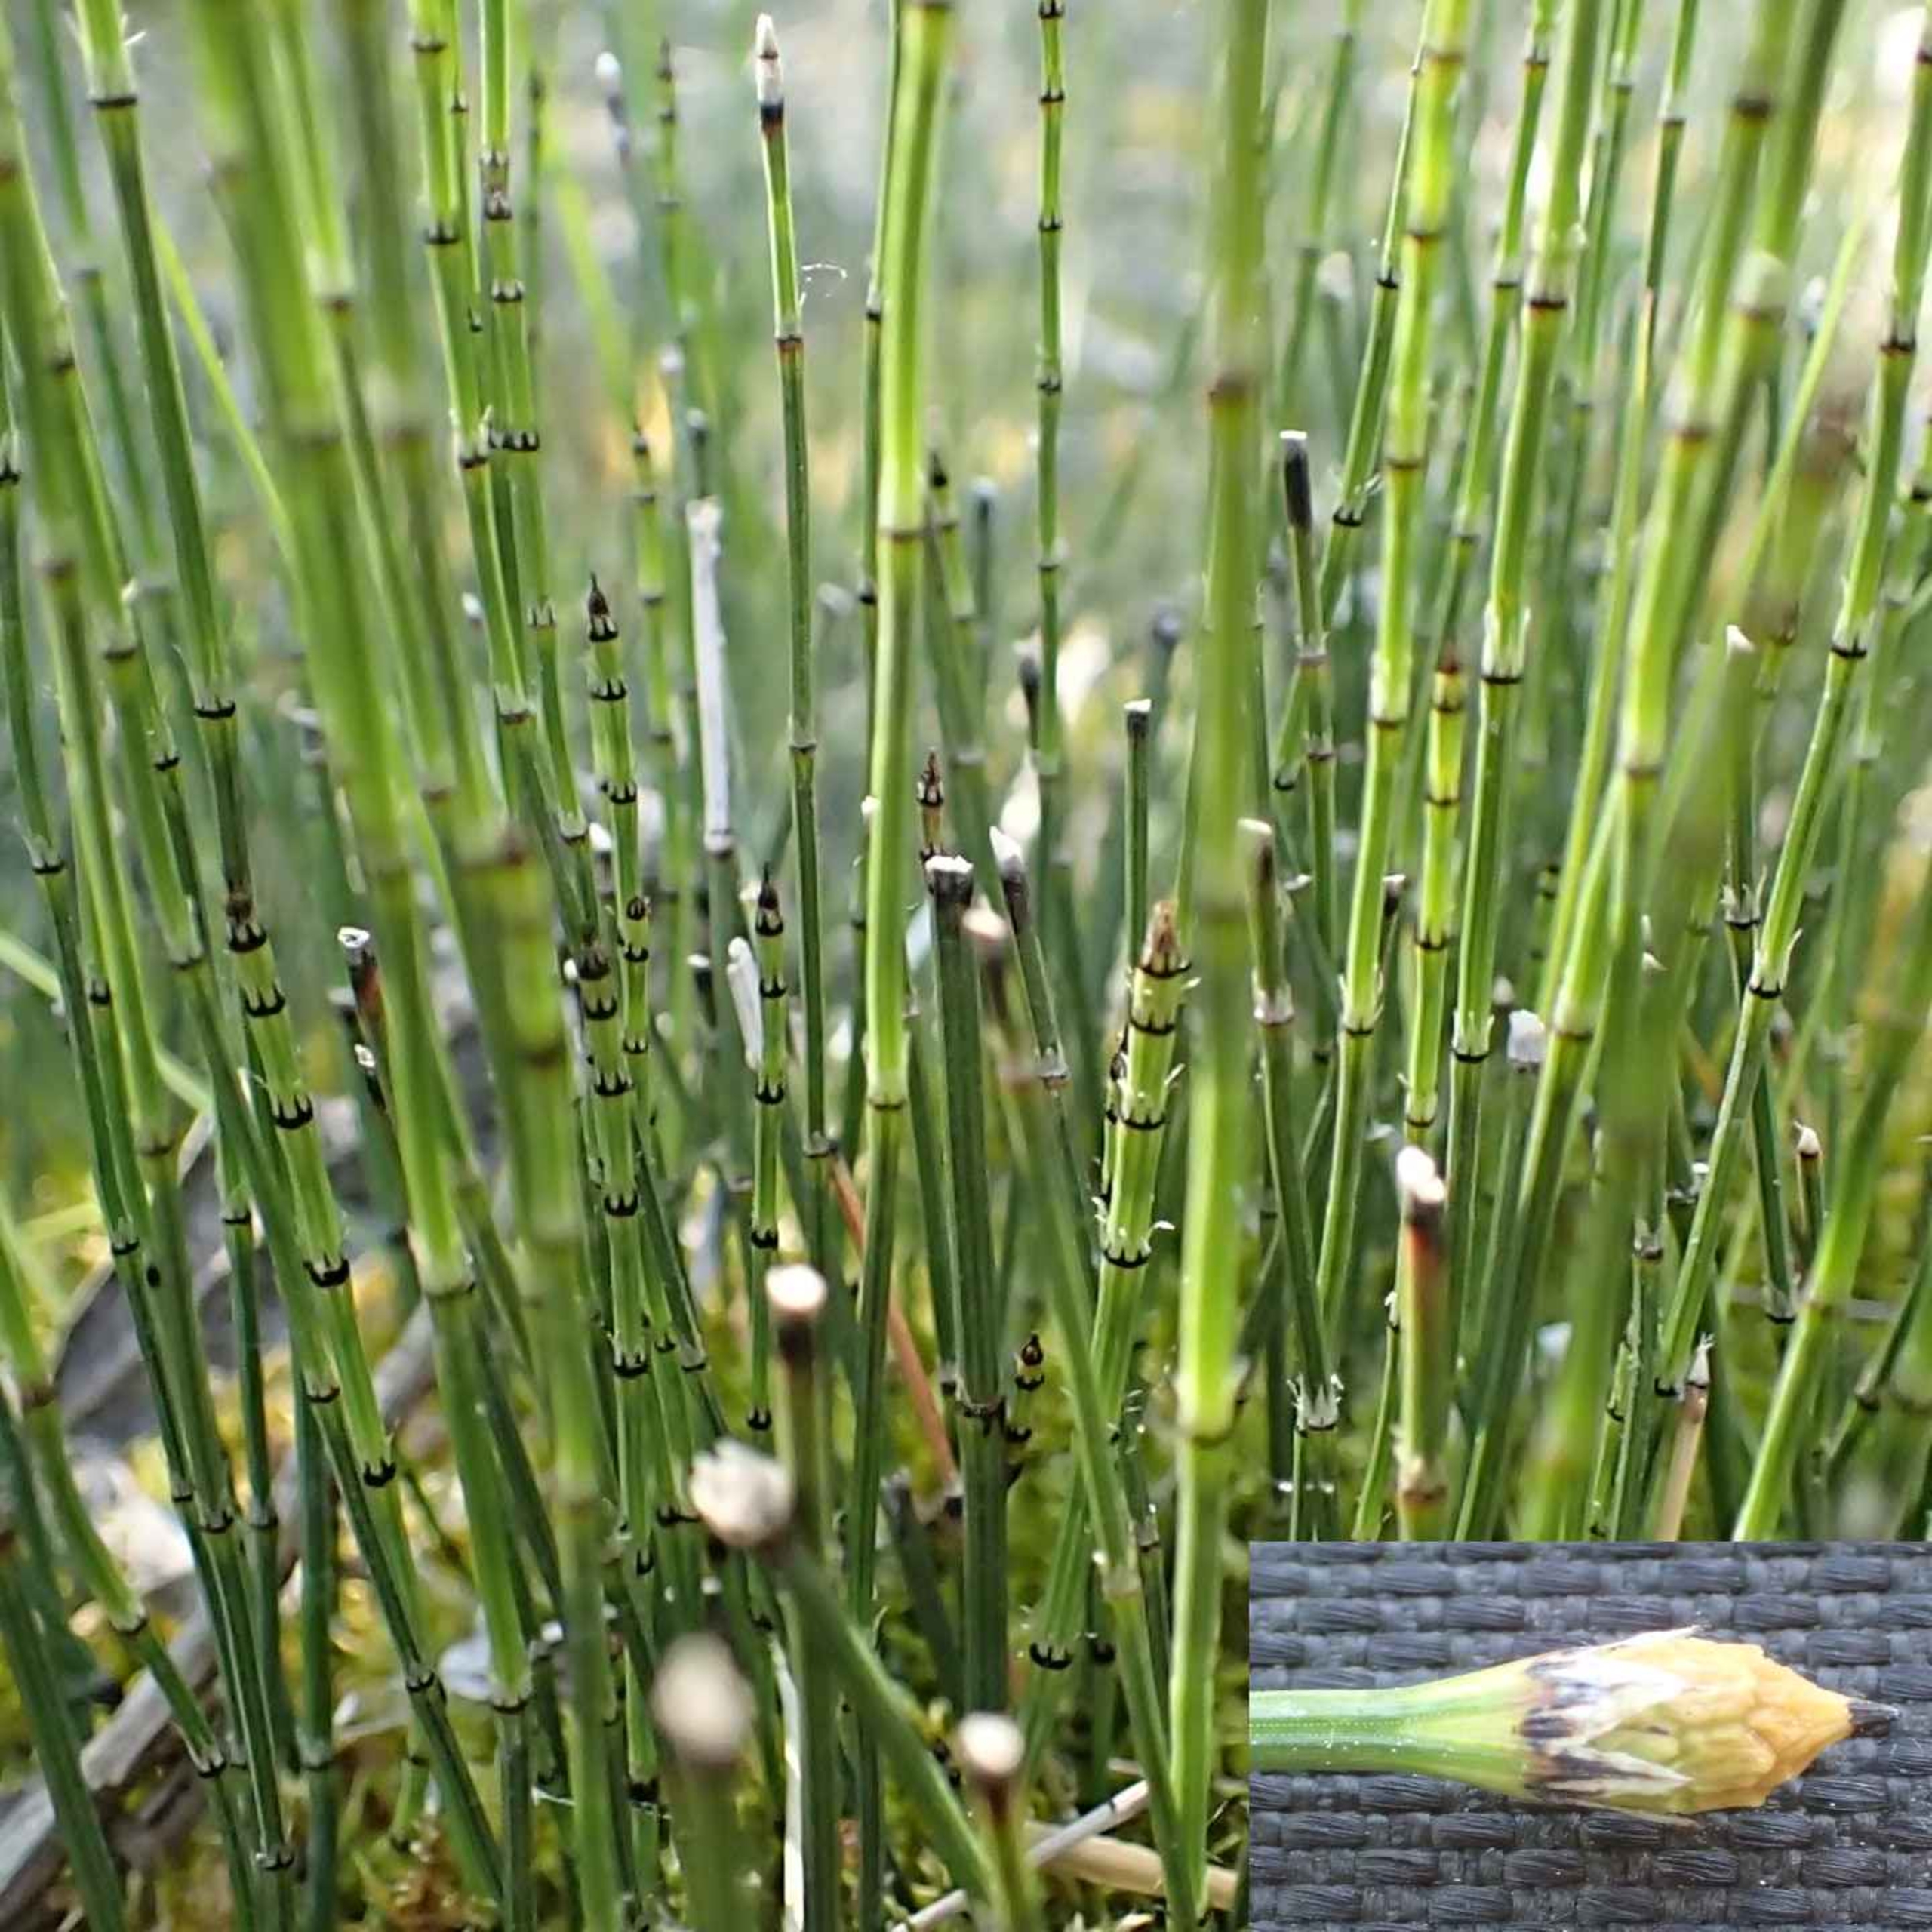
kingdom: Plantae
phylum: Tracheophyta
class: Polypodiopsida
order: Equisetales
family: Equisetaceae
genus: Equisetum
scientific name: Equisetum variegatum
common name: Liden padderok
